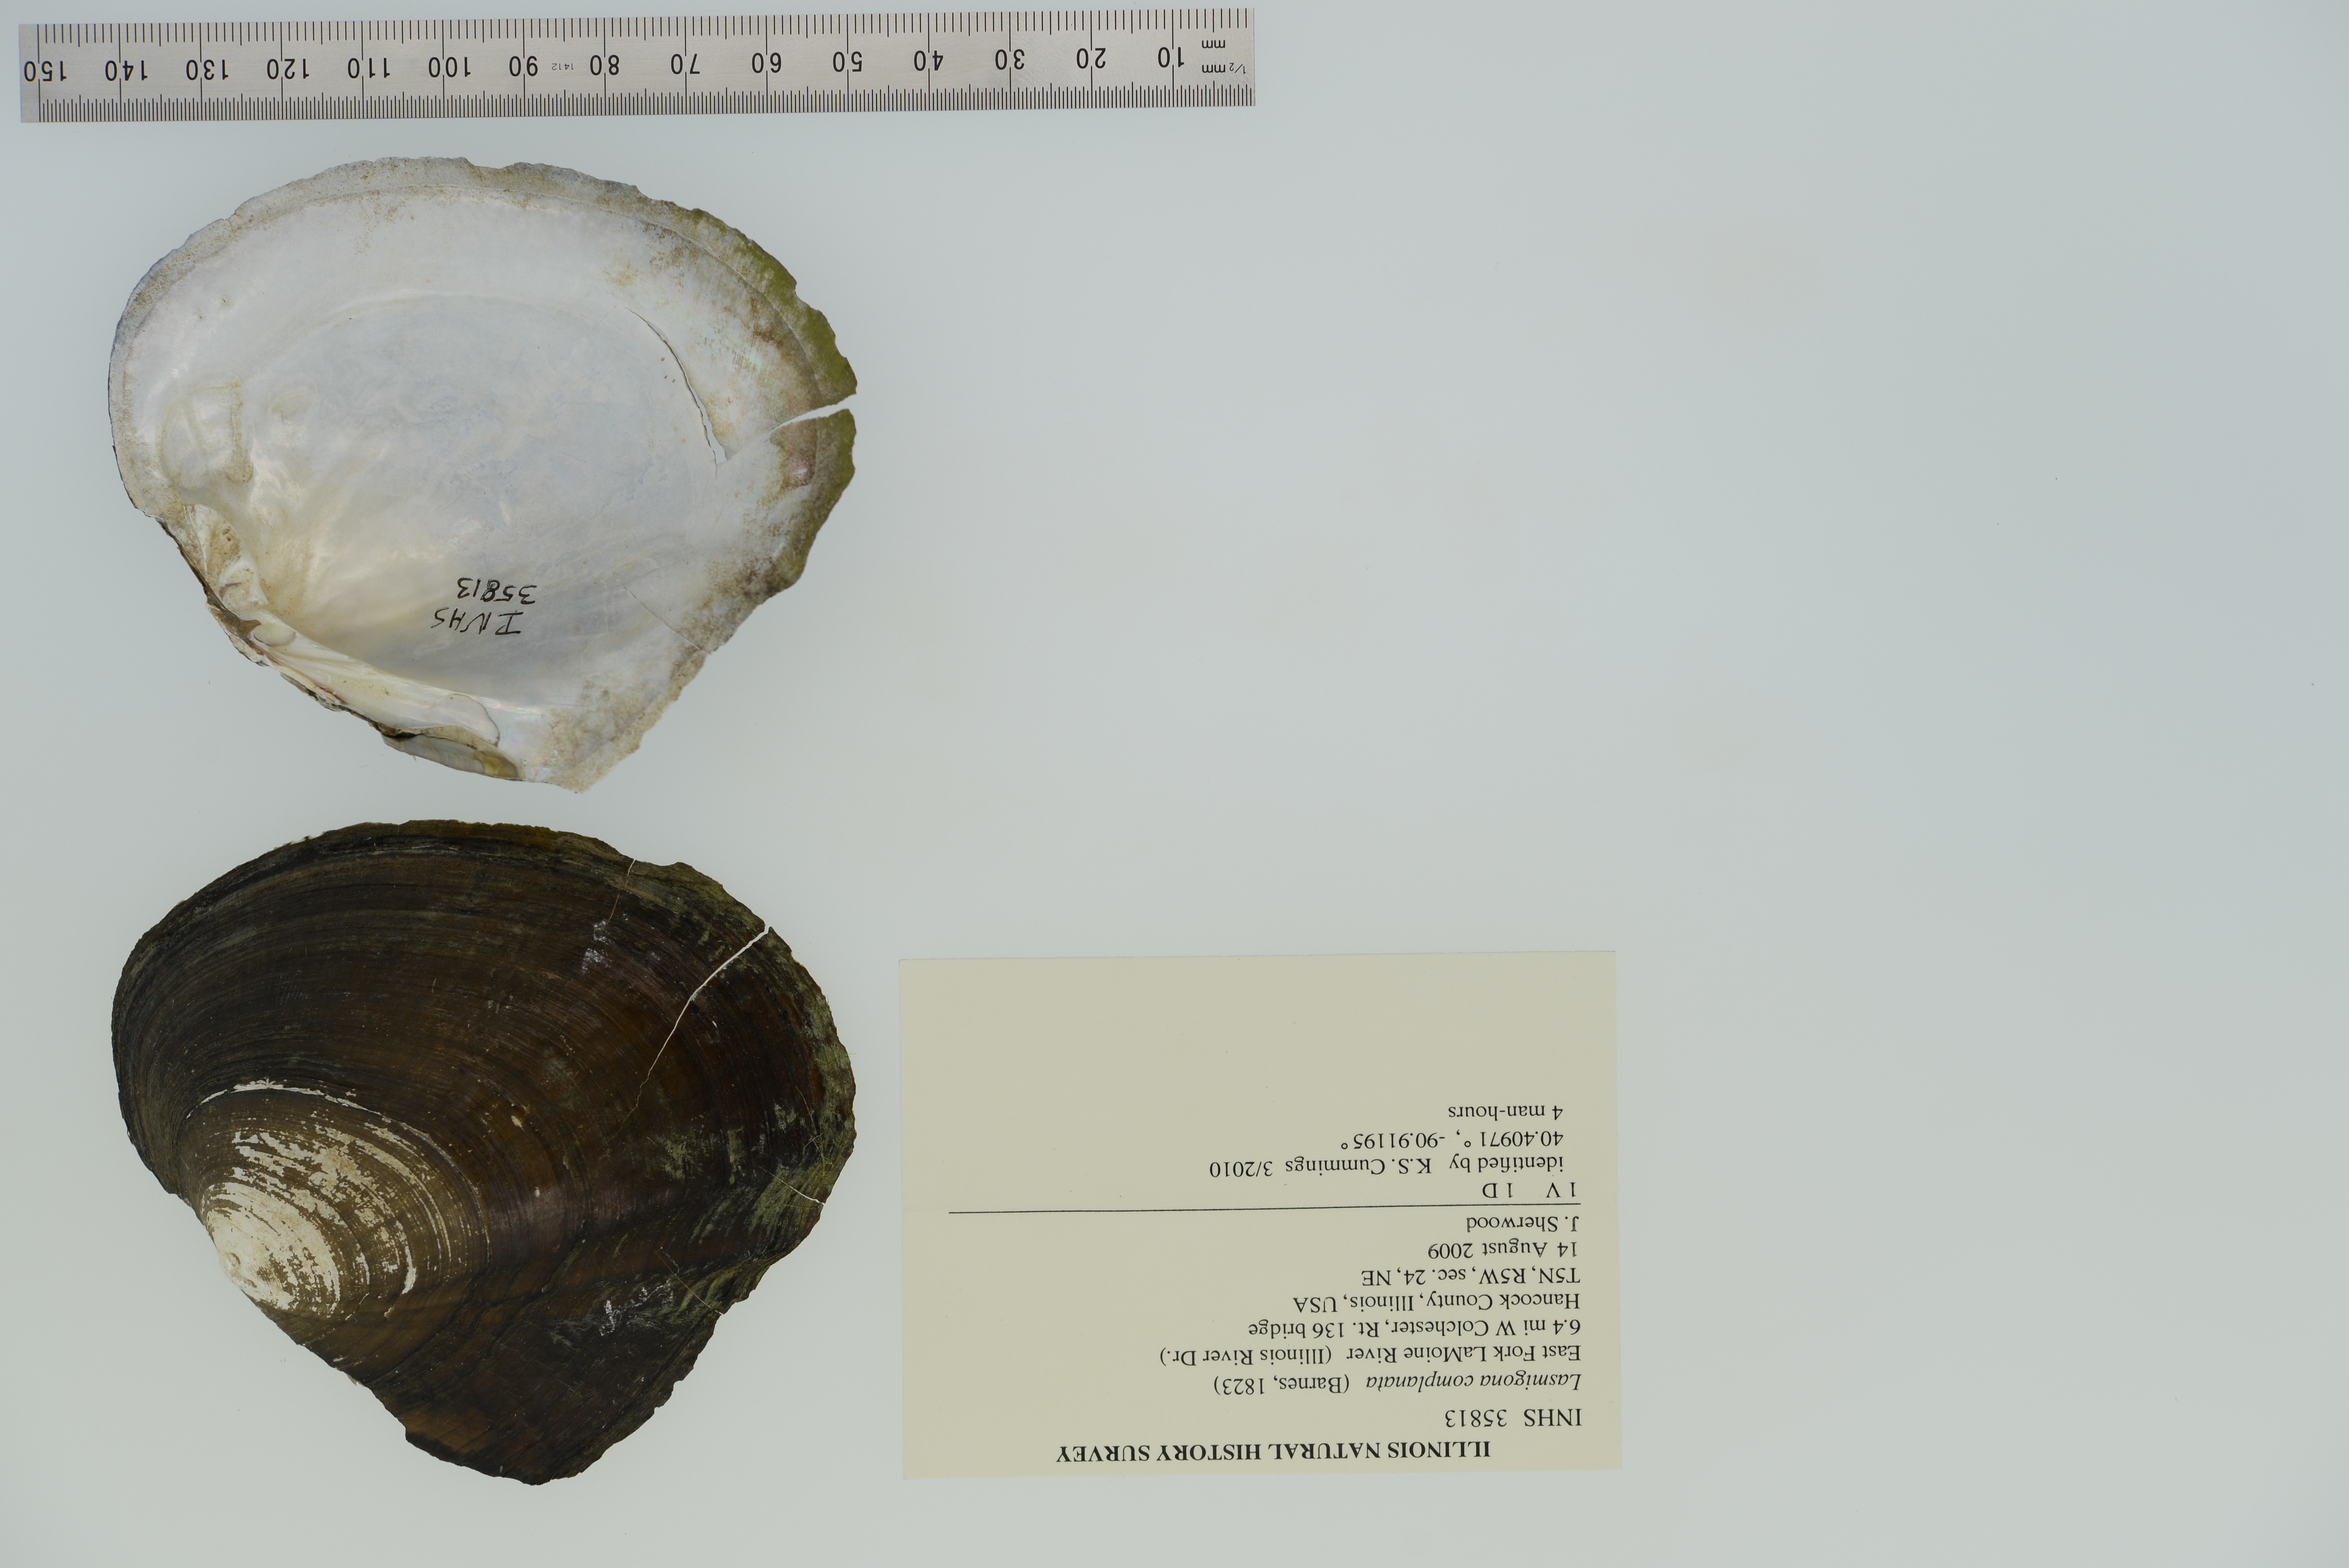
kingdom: Animalia
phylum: Mollusca
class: Bivalvia
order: Unionida
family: Unionidae
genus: Lasmigona
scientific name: Lasmigona complanata
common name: White heelsplitter
